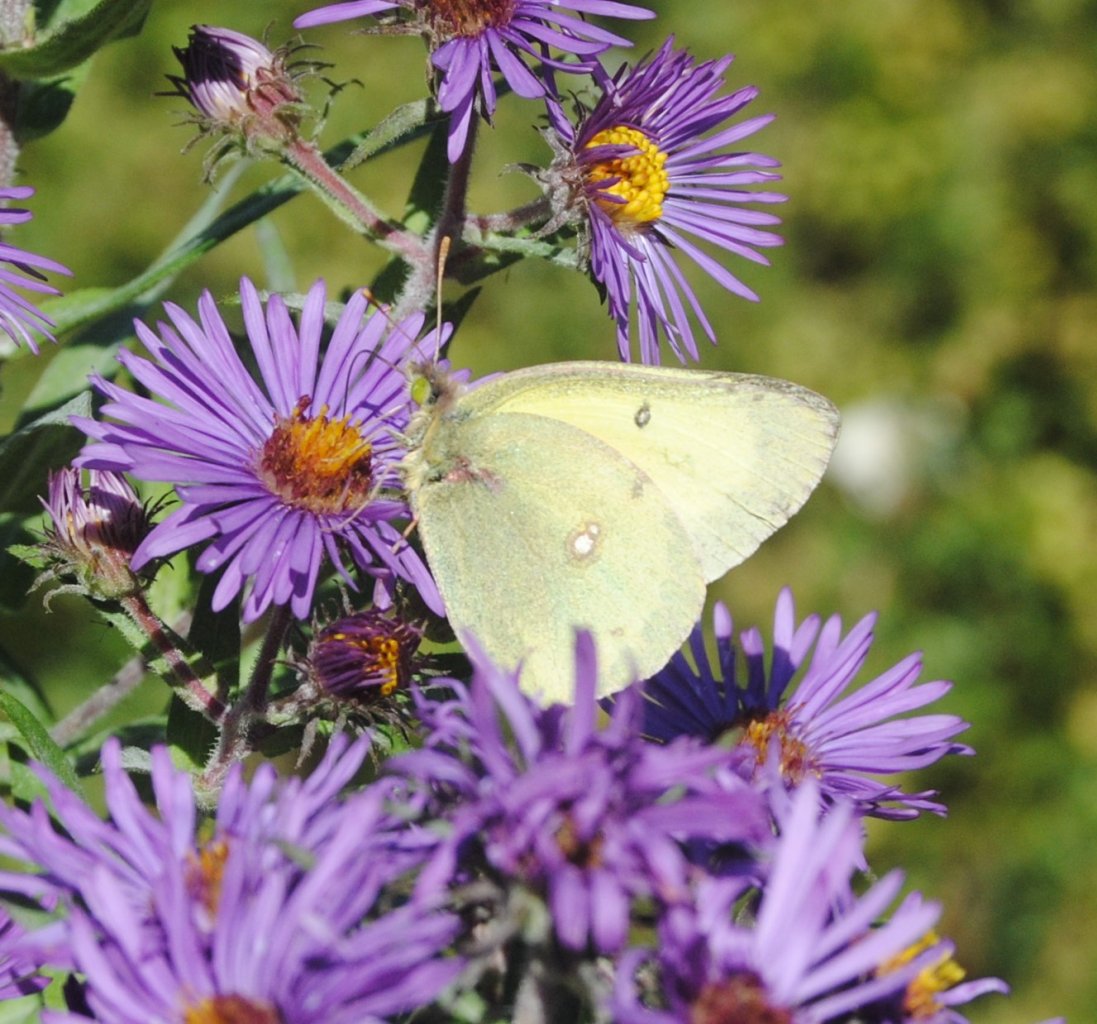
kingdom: Animalia
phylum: Arthropoda
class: Insecta
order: Lepidoptera
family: Pieridae
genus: Colias
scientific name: Colias philodice
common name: Clouded Sulphur
